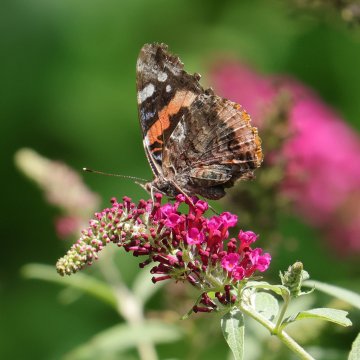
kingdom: Animalia
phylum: Arthropoda
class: Insecta
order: Lepidoptera
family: Nymphalidae
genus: Vanessa
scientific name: Vanessa atalanta
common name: Red Admiral
